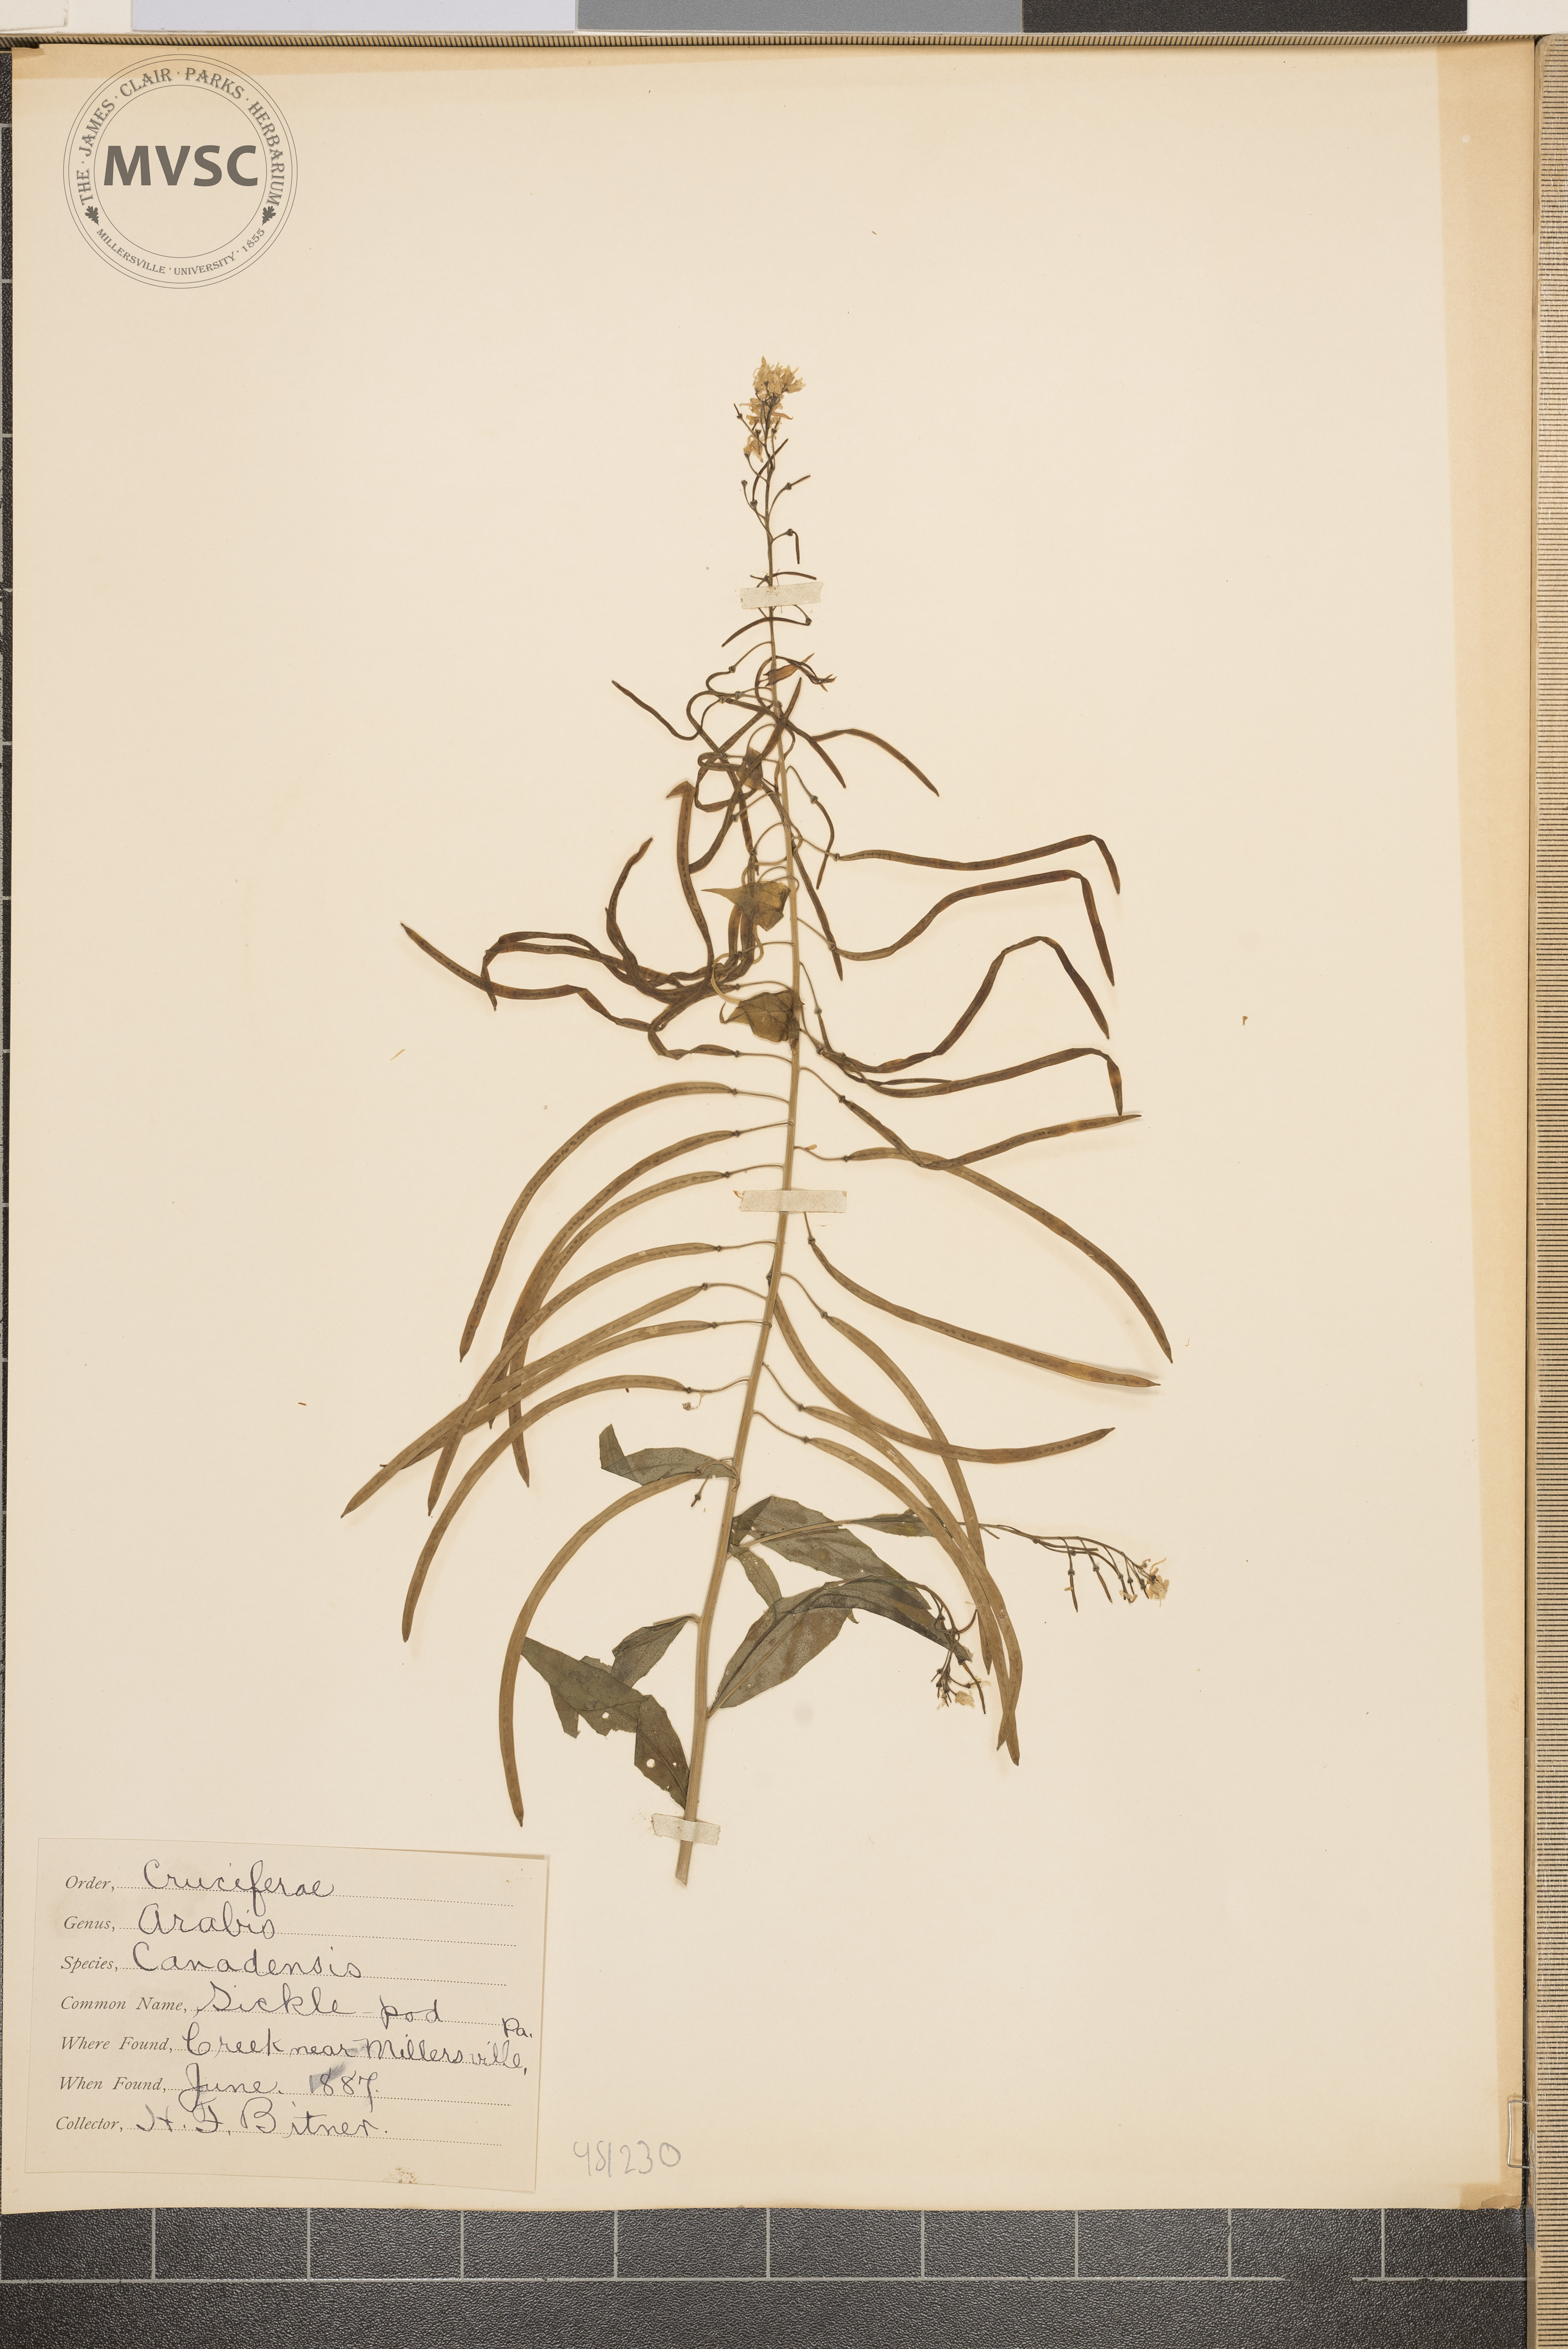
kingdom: Plantae
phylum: Tracheophyta
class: Magnoliopsida
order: Brassicales
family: Brassicaceae
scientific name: Brassicaceae
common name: Sickle pod
